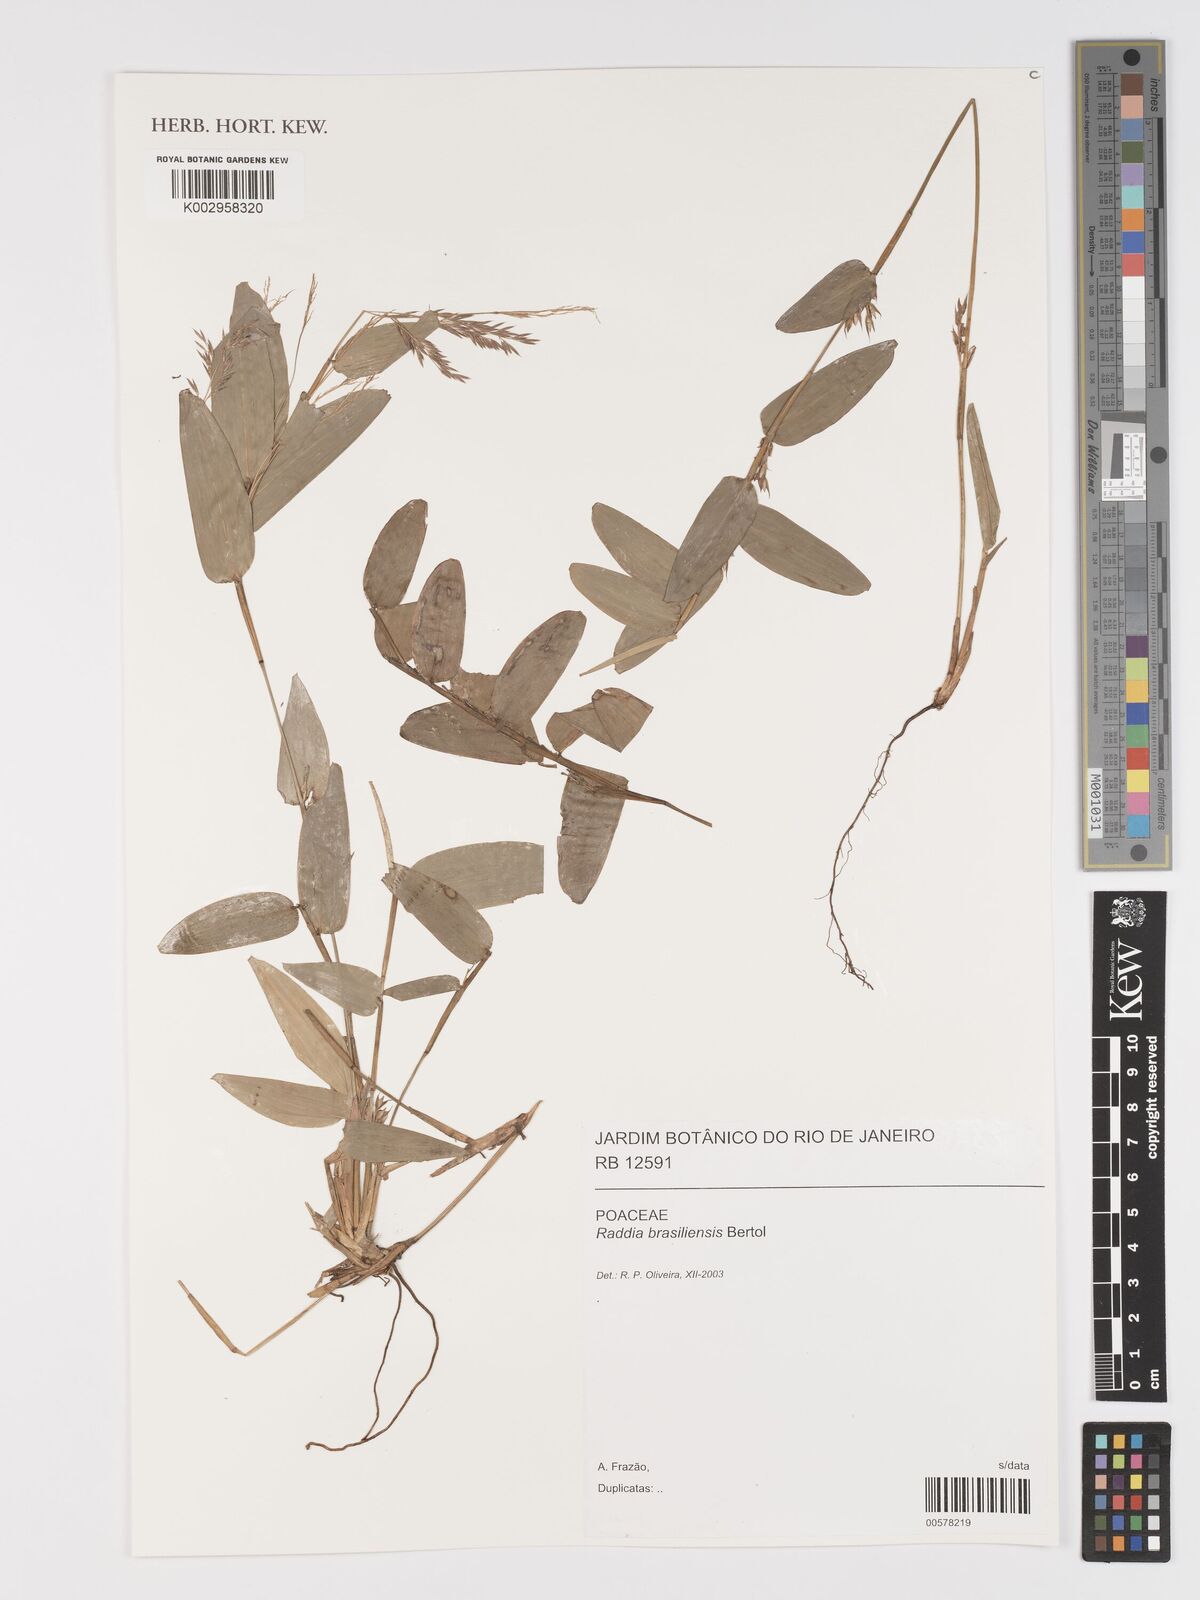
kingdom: Plantae
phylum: Tracheophyta
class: Liliopsida
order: Poales
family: Poaceae
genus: Raddia
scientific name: Raddia brasiliensis
